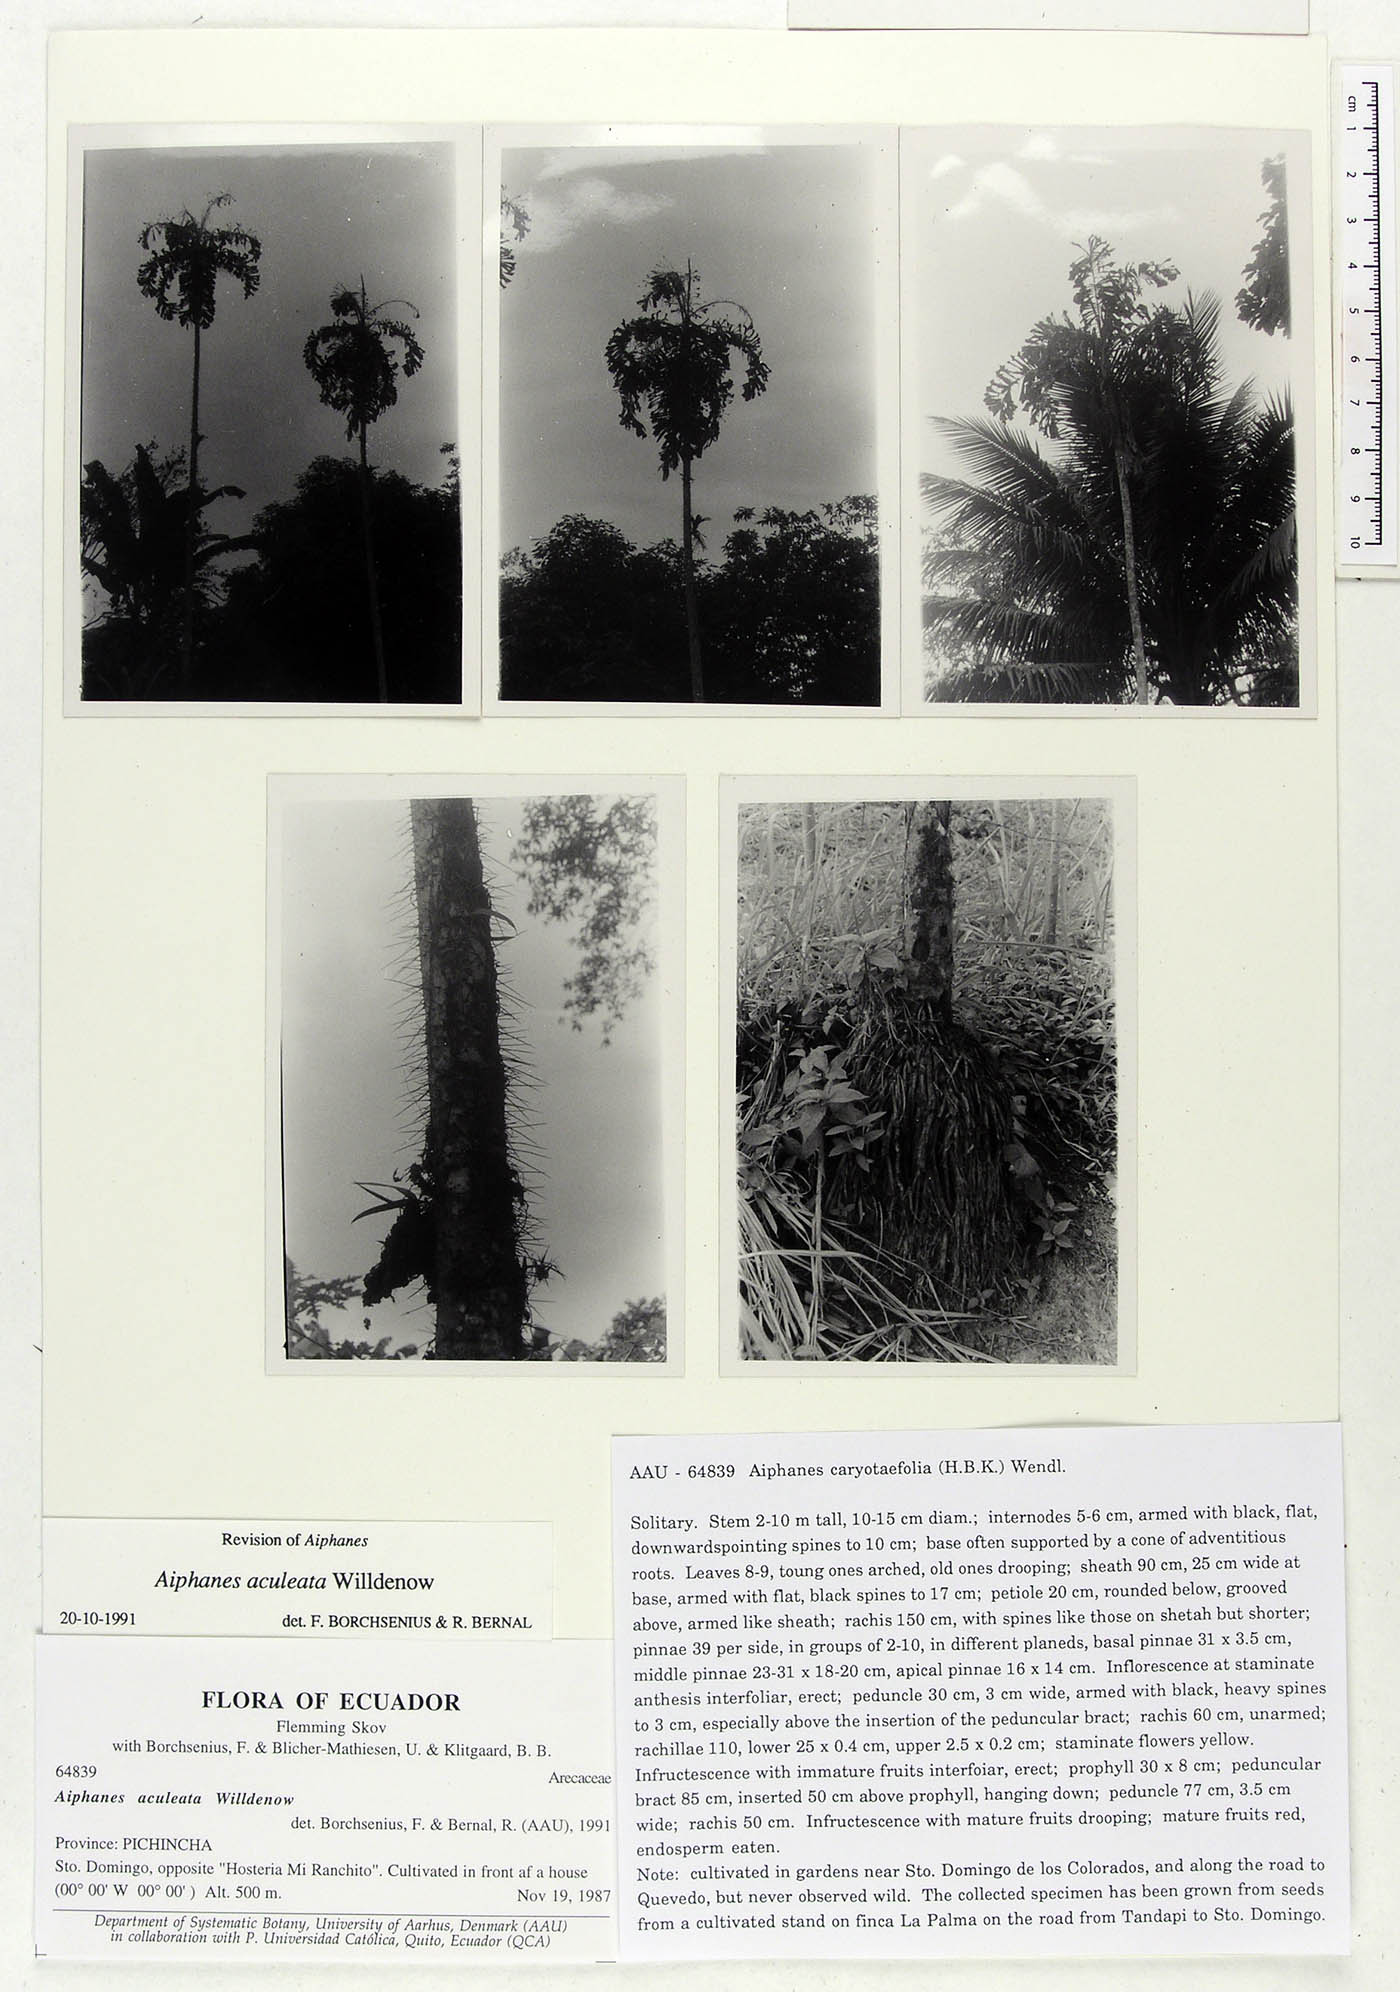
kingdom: Plantae
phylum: Tracheophyta
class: Liliopsida
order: Arecales
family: Arecaceae
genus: Aiphanes
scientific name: Aiphanes horrida
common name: Ruffle palm
